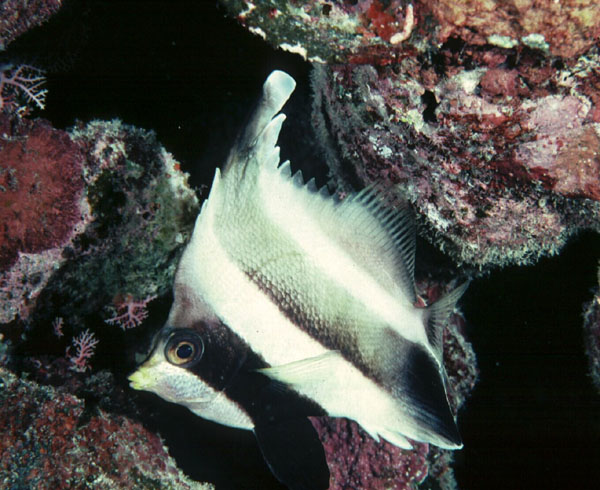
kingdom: Animalia
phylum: Chordata
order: Perciformes
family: Chaetodontidae
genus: Heniochus
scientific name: Heniochus chrysostomus
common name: Horned bannerfish
